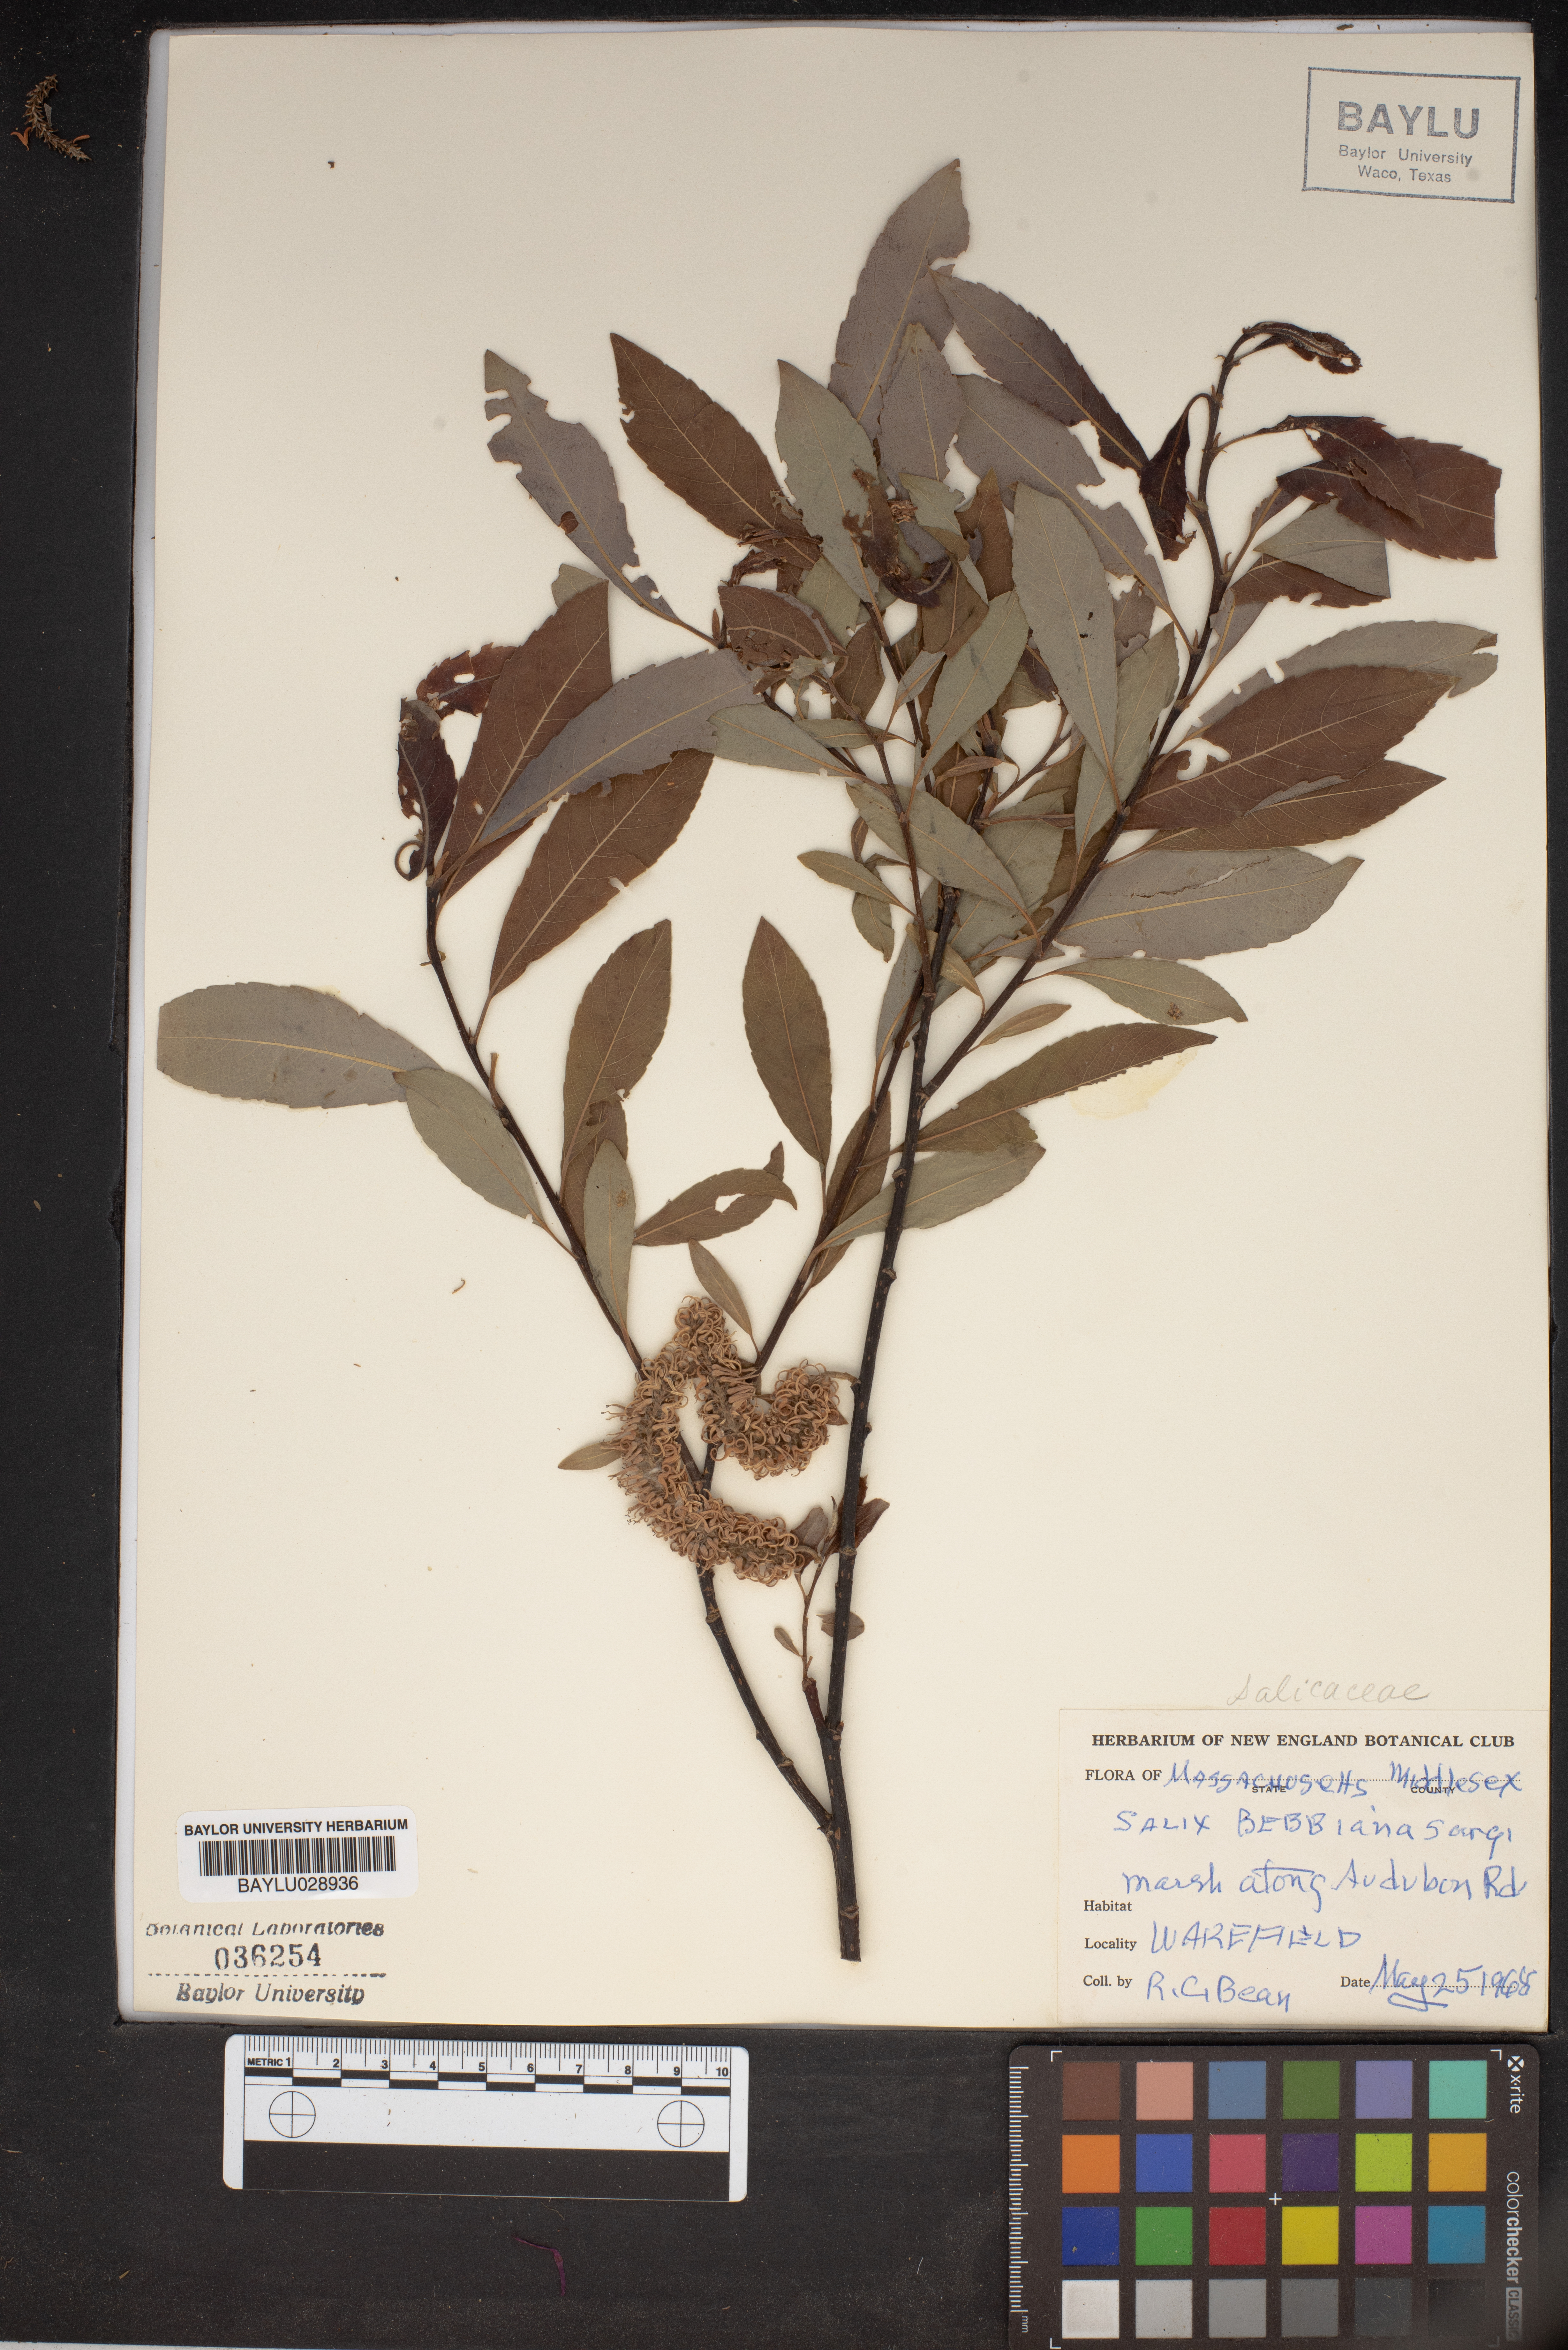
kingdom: Plantae
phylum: Tracheophyta
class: Magnoliopsida
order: Malpighiales
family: Salicaceae
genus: Salix
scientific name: Salix bebbiana
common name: Bebb's willow
